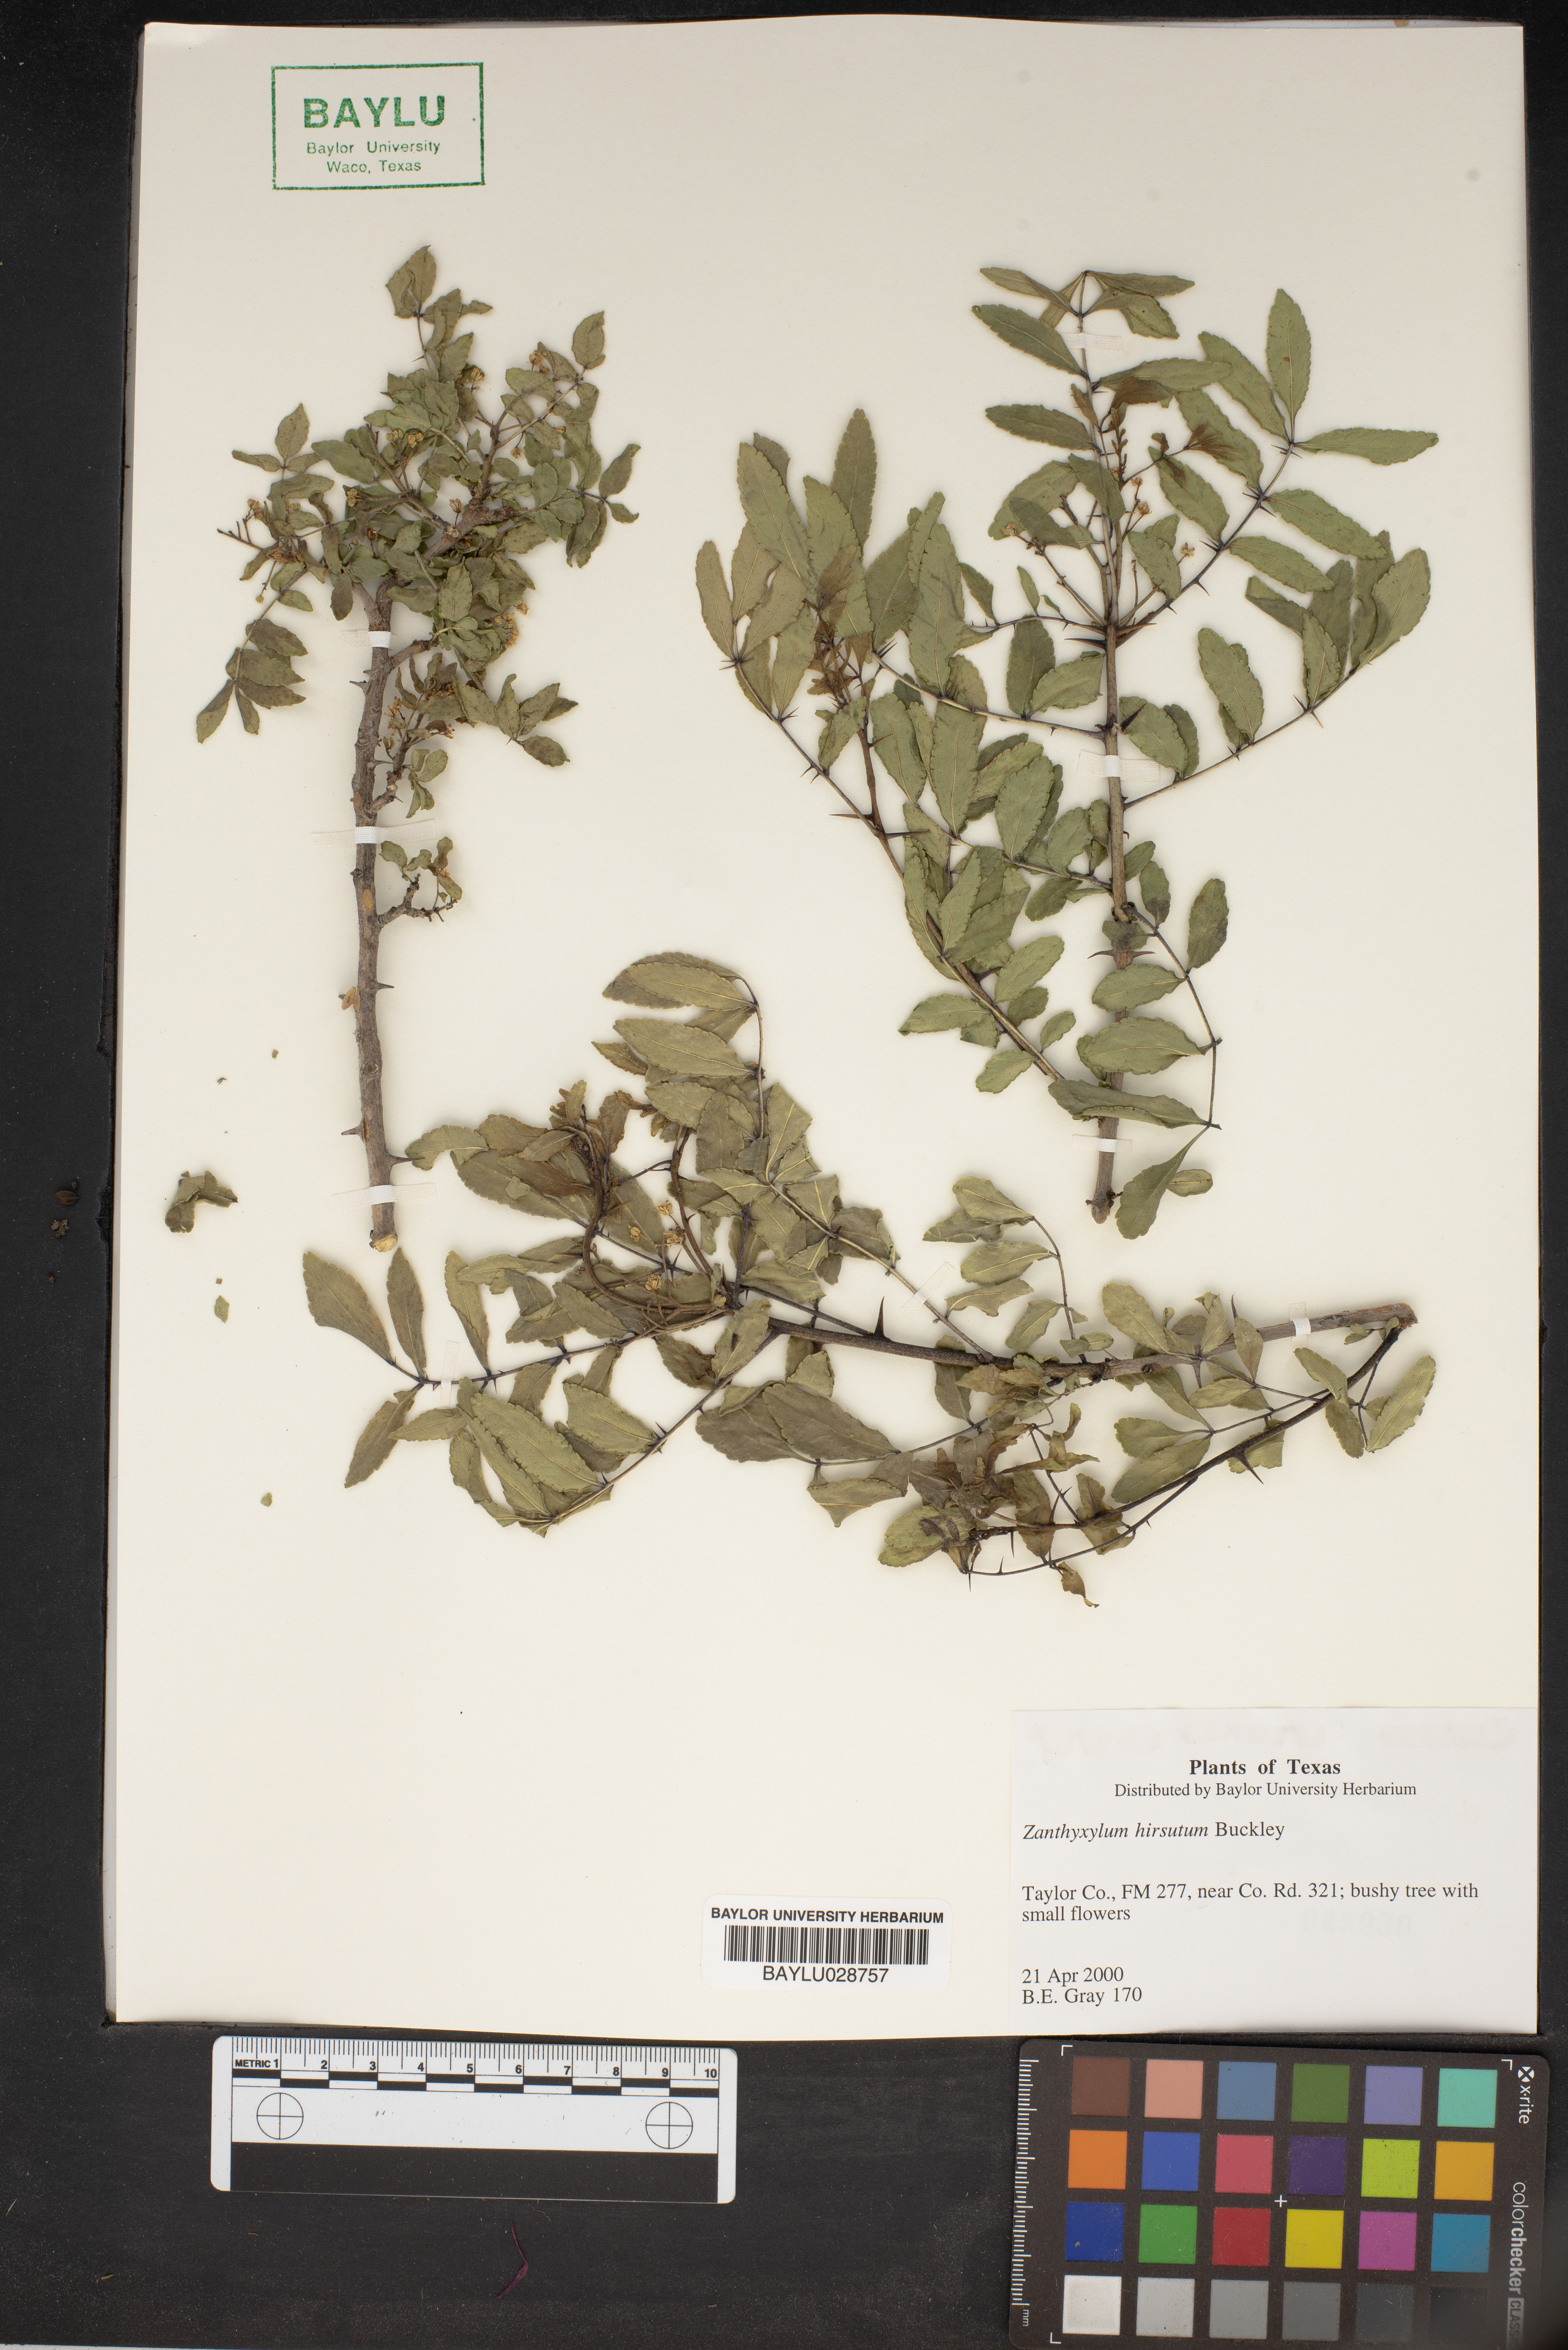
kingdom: Plantae
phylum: Tracheophyta
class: Magnoliopsida
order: Sapindales
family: Rutaceae
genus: Zanthoxylum
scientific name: Zanthoxylum clava-herculis
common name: Hercules'-club
